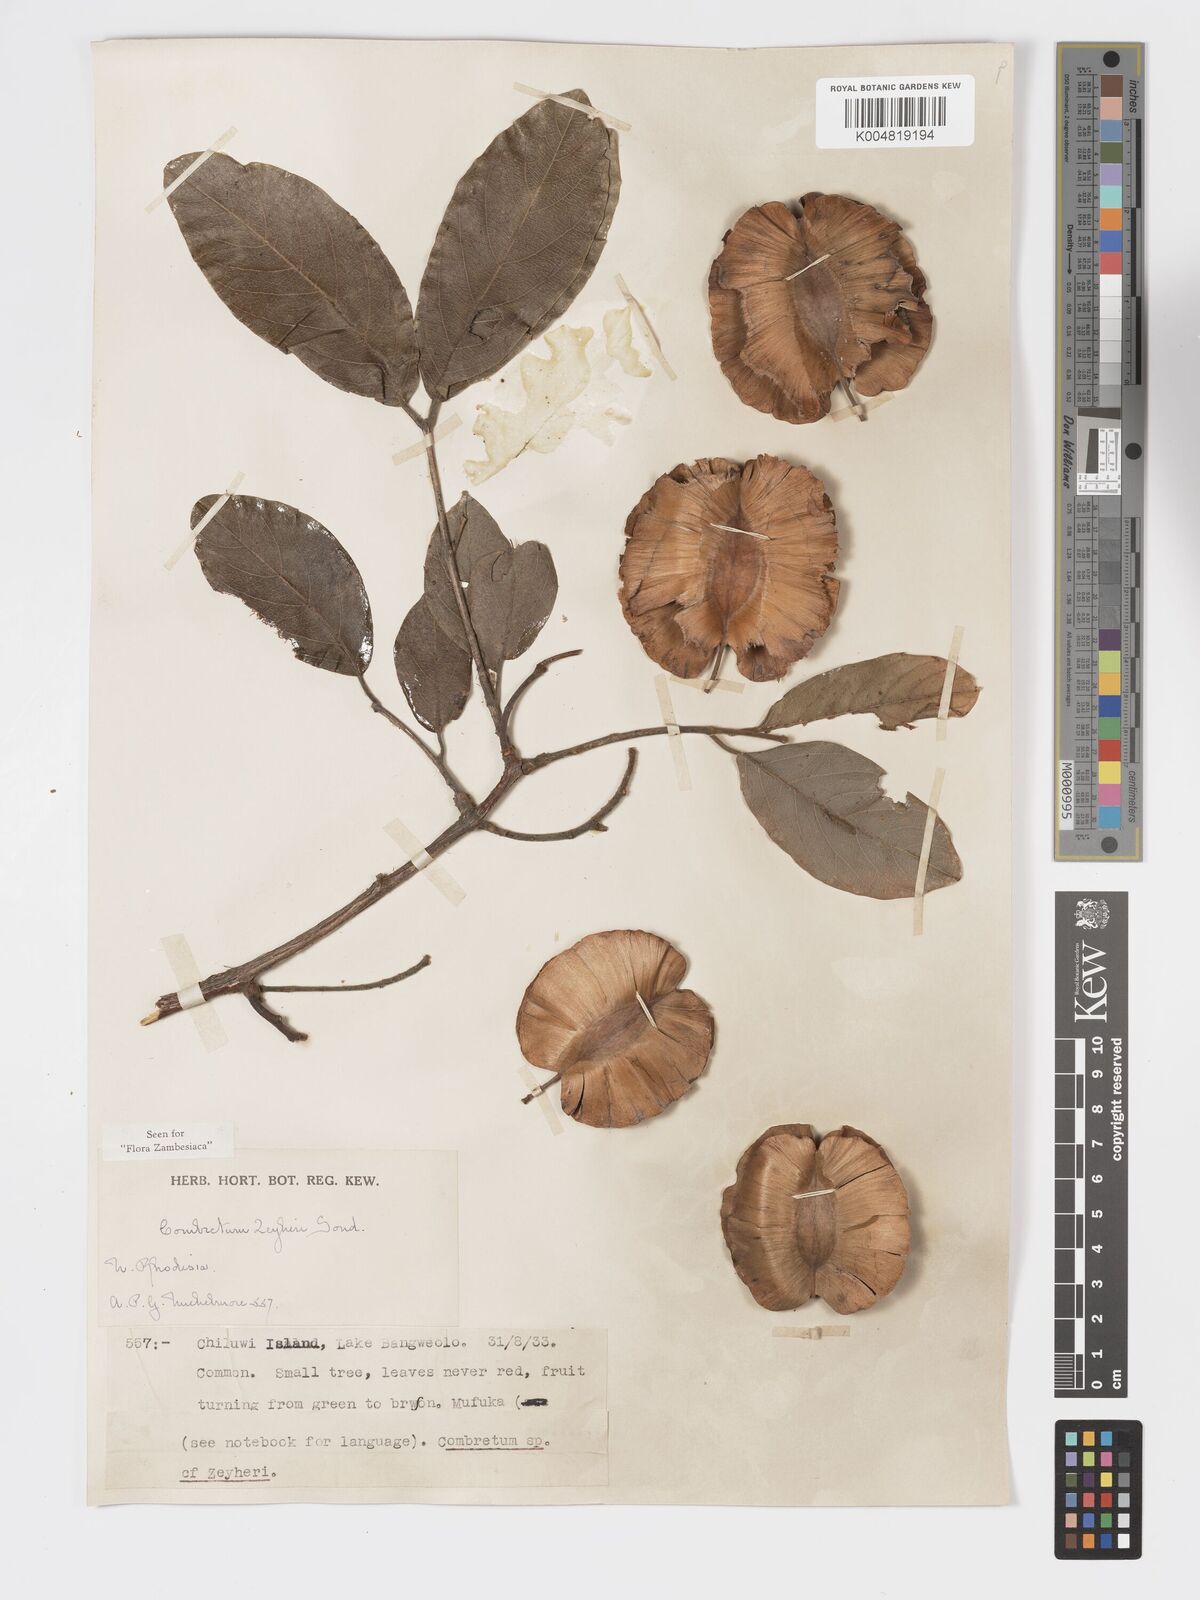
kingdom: Plantae
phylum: Tracheophyta
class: Magnoliopsida
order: Myrtales
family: Combretaceae
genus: Combretum
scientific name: Combretum zeyheri
